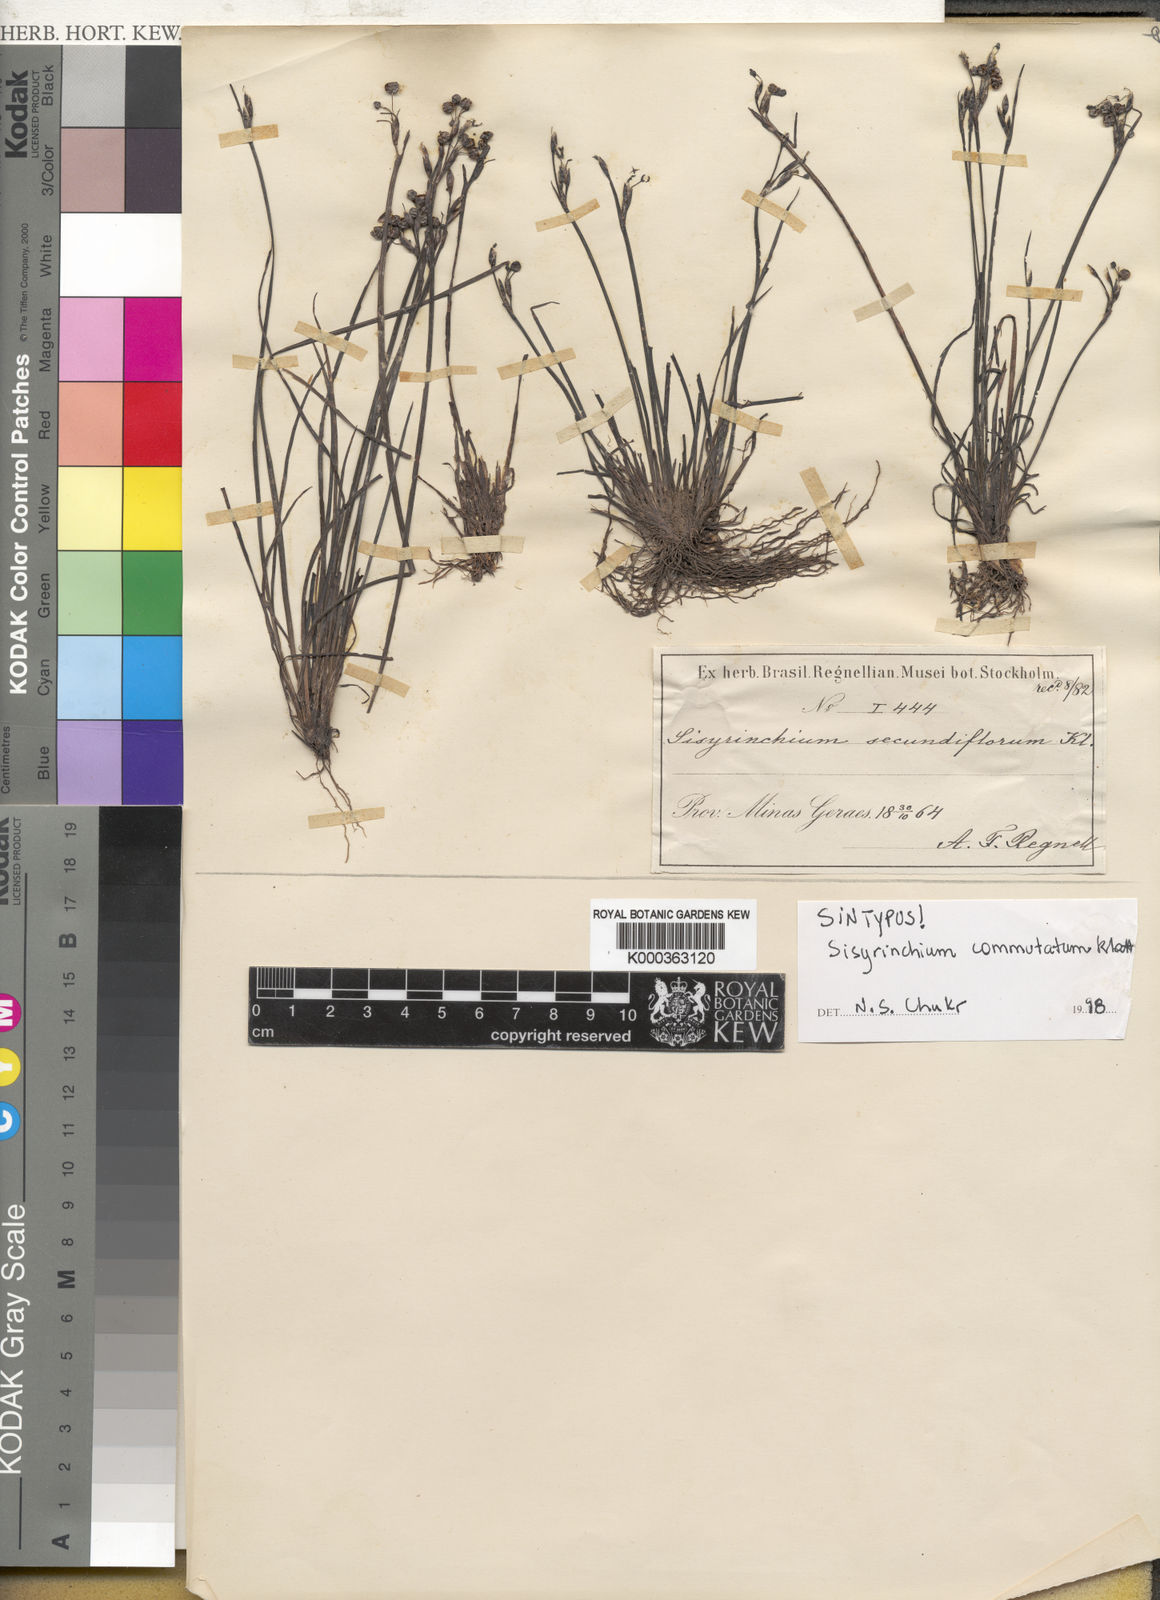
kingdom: Plantae
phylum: Tracheophyta
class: Liliopsida
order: Asparagales
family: Iridaceae
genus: Sisyrinchium
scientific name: Sisyrinchium commutatum
